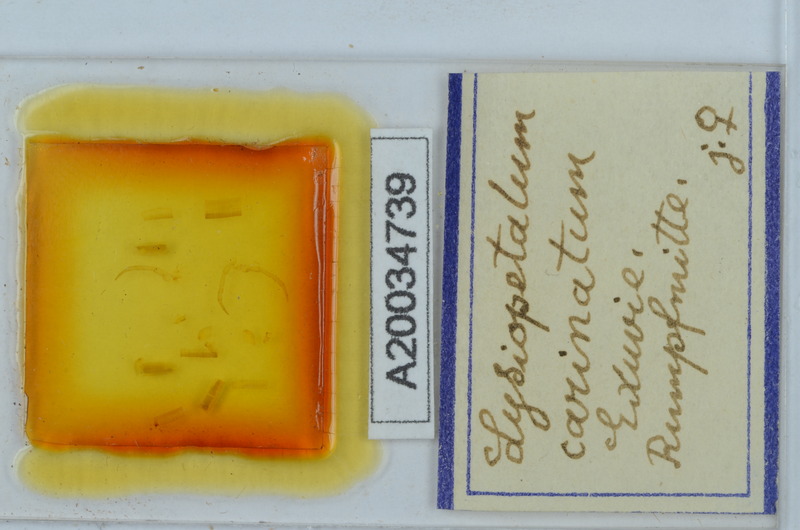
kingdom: Animalia
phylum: Arthropoda
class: Diplopoda
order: Callipodida
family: Schizopetalidae
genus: Acanthopetalum
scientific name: Acanthopetalum carinatum
